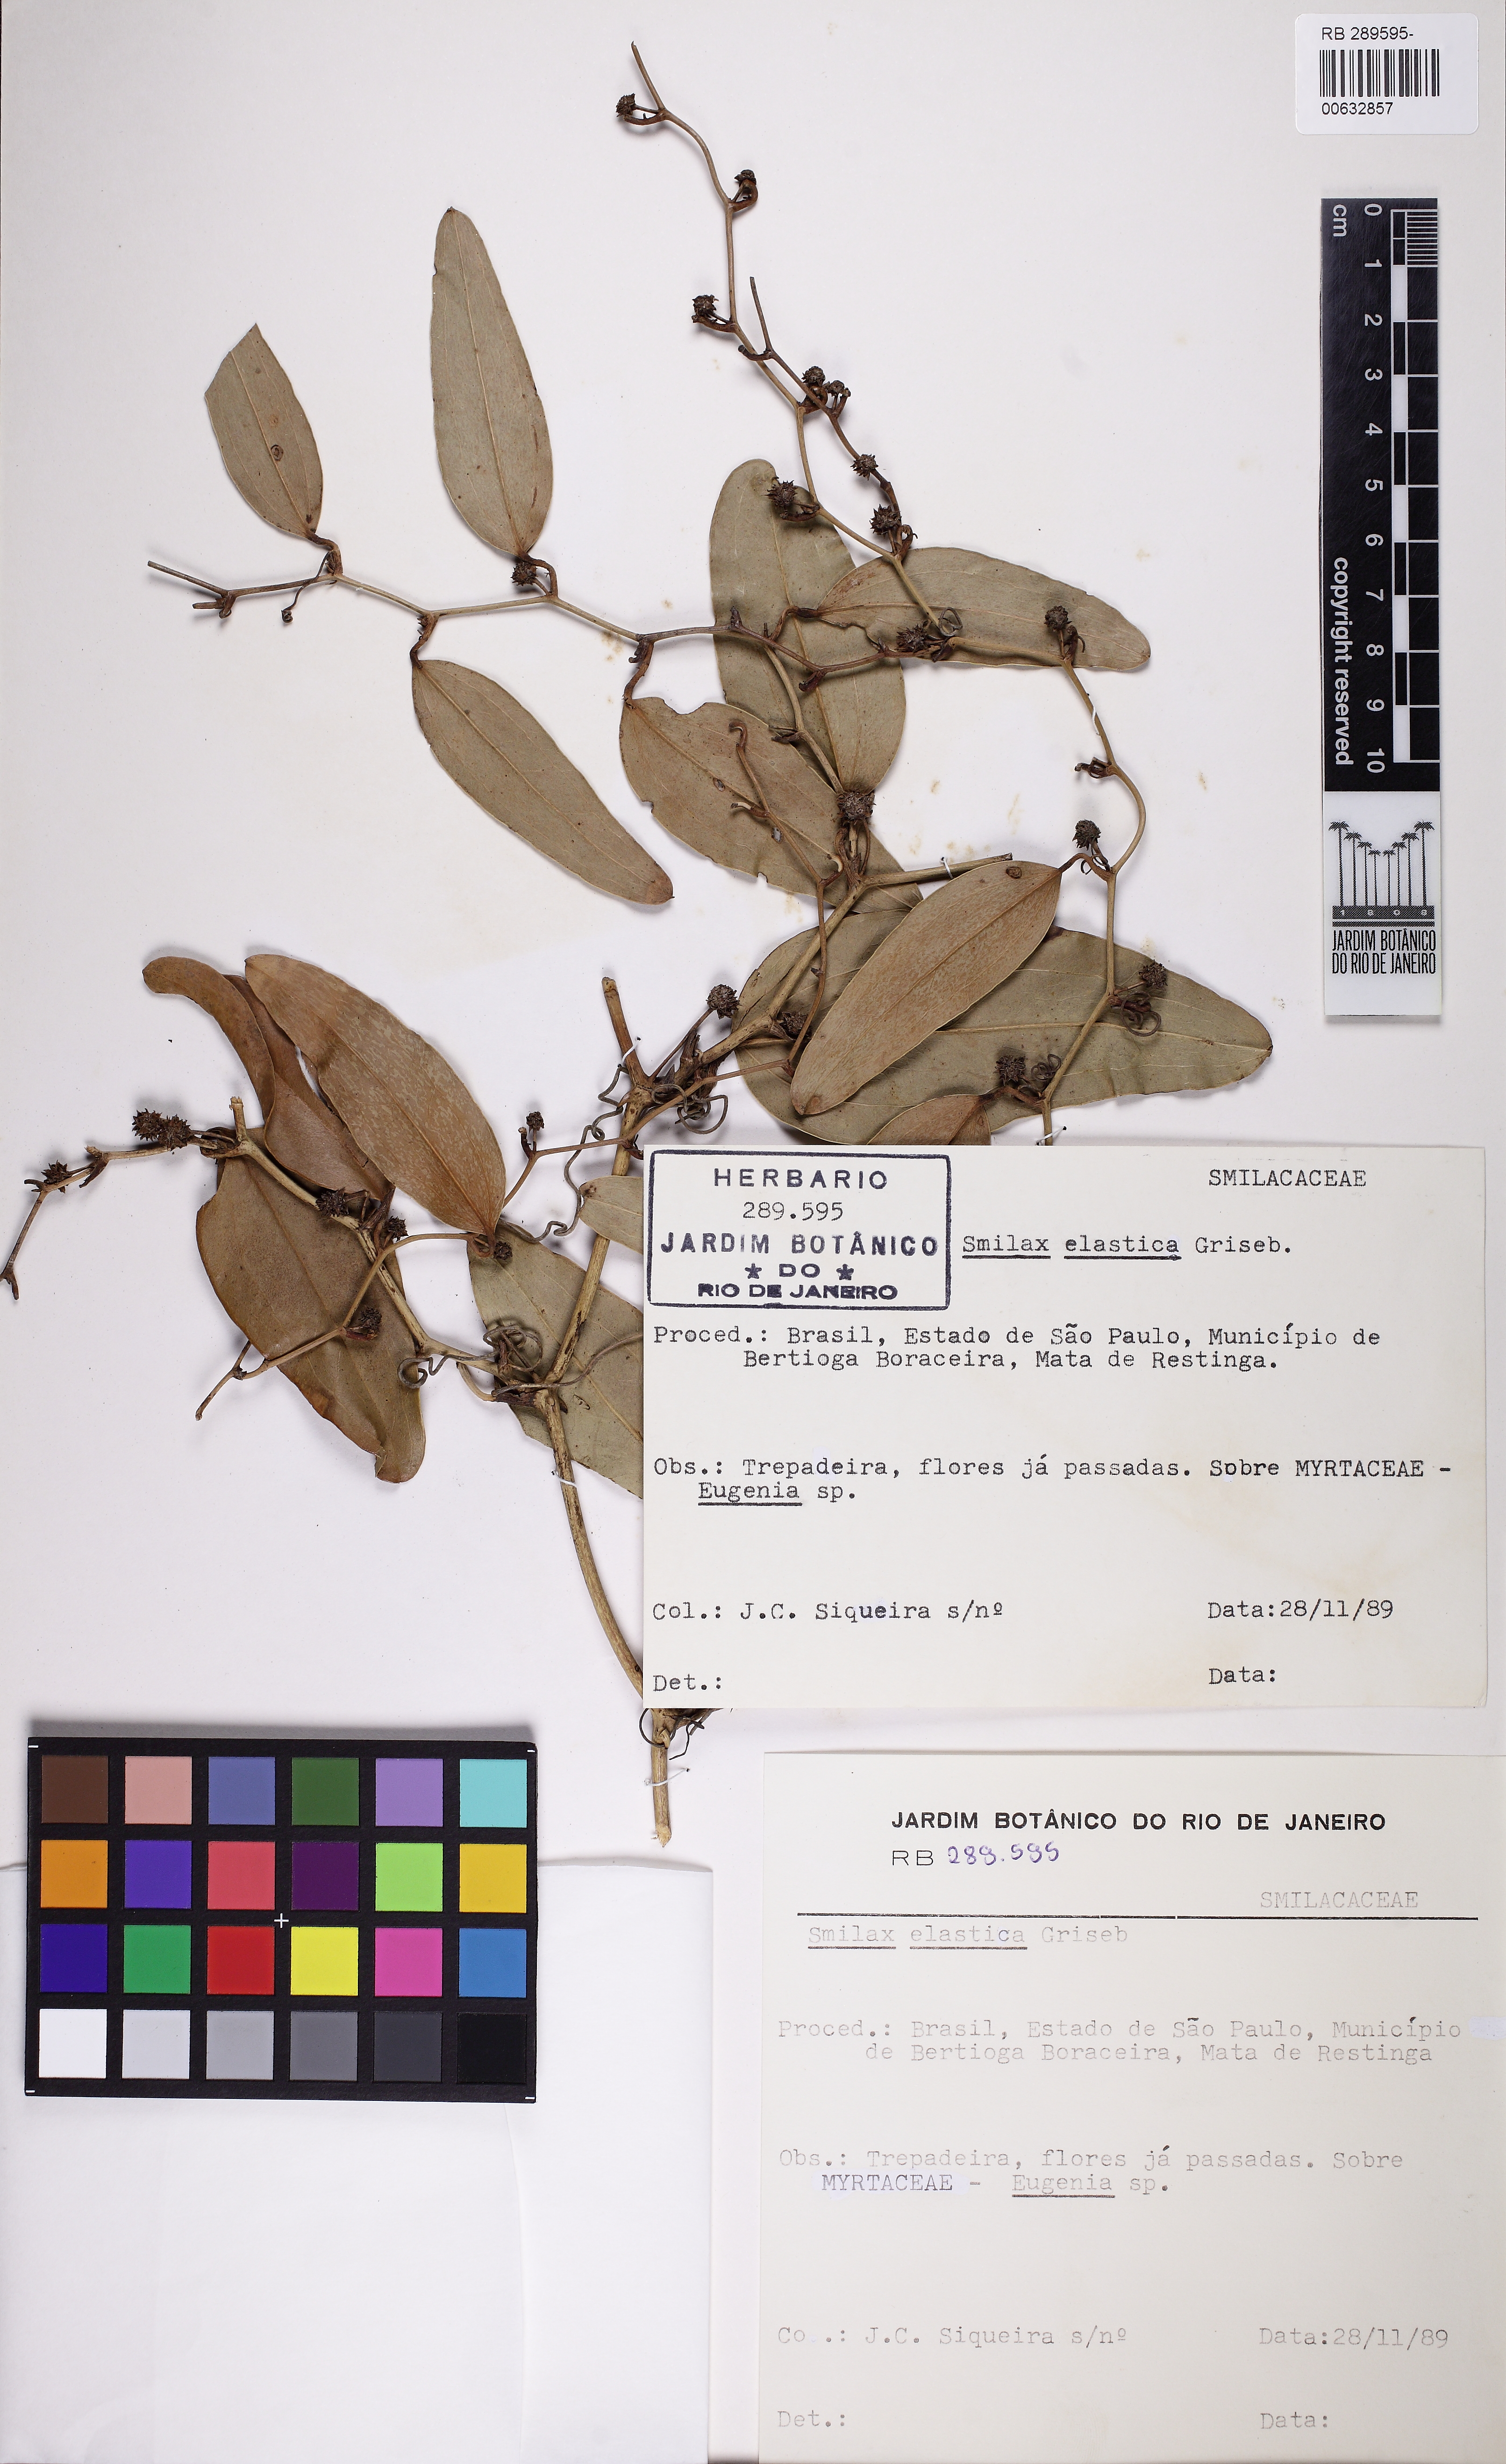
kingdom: Plantae
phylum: Tracheophyta
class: Liliopsida
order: Liliales
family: Smilacaceae
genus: Smilax
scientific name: Smilax elastica
